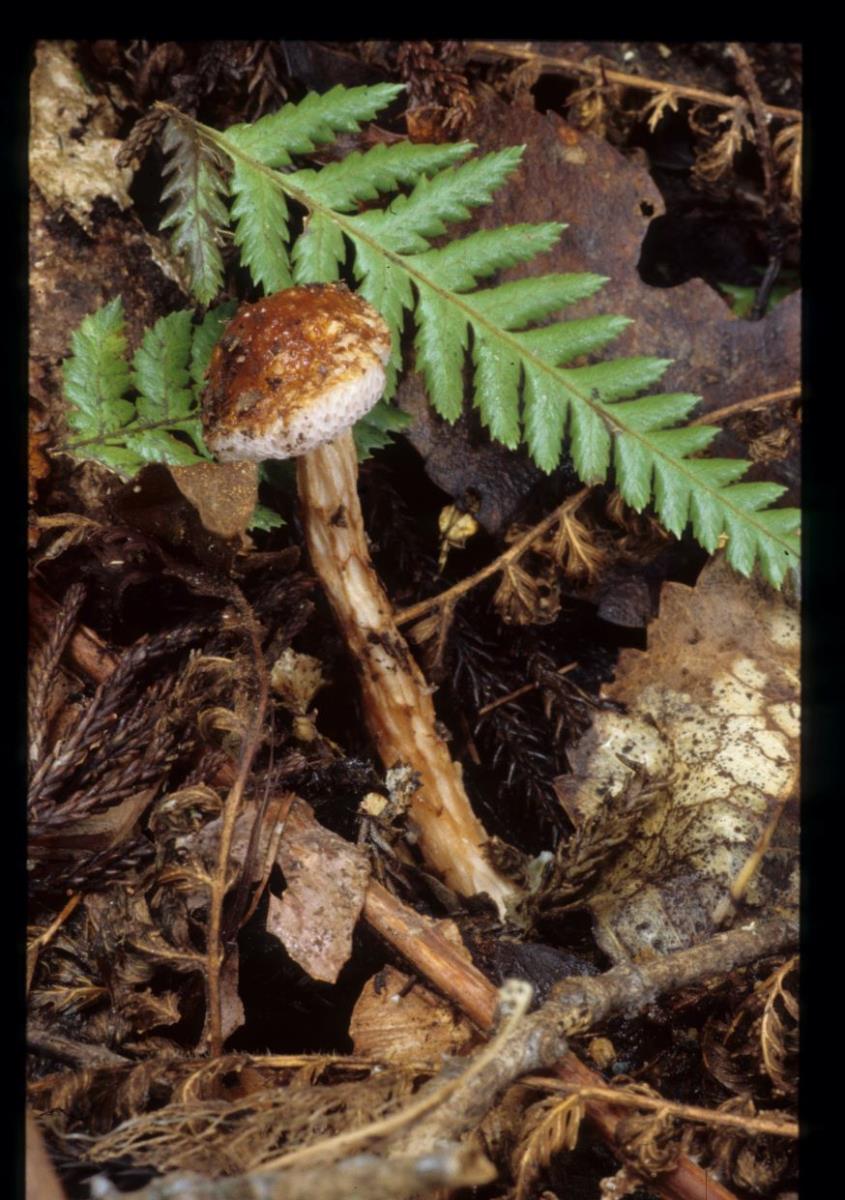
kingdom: Fungi
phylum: Basidiomycota
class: Agaricomycetes
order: Boletales
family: Boletaceae
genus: Austroboletus
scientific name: Austroboletus lacunosus
